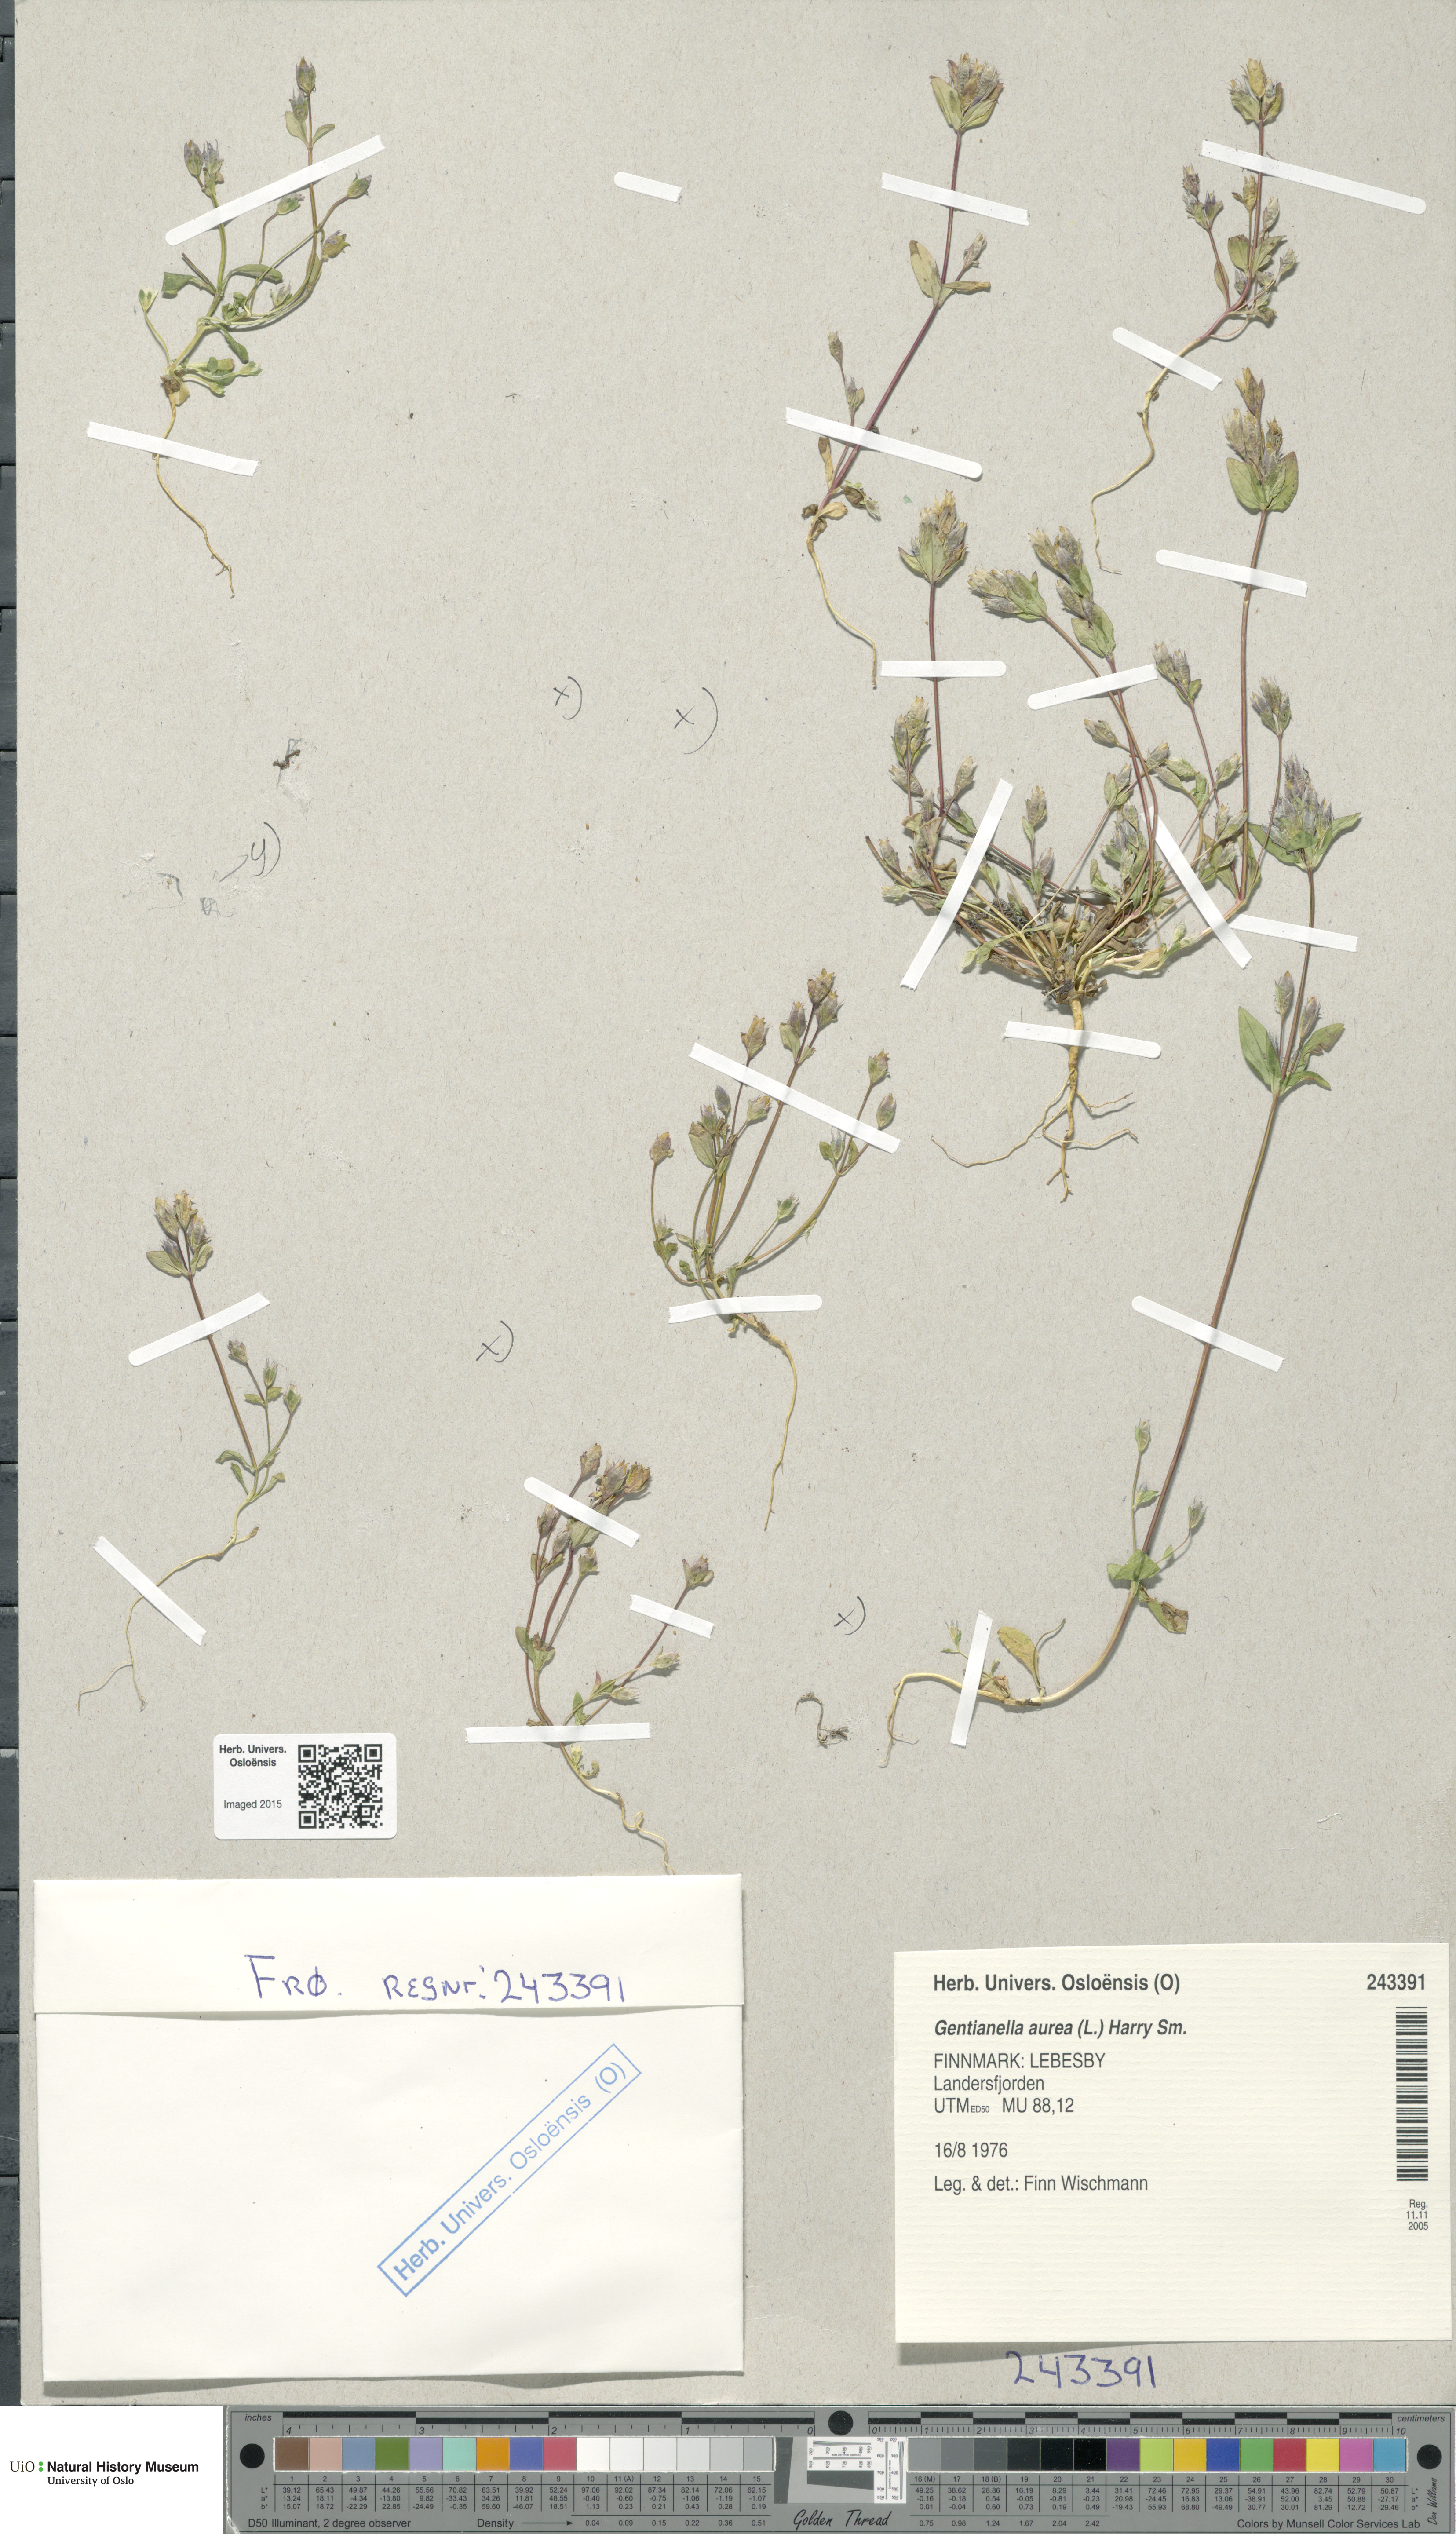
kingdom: Plantae
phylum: Tracheophyta
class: Magnoliopsida
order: Gentianales
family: Gentianaceae
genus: Gentianella
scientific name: Gentianella aurea
